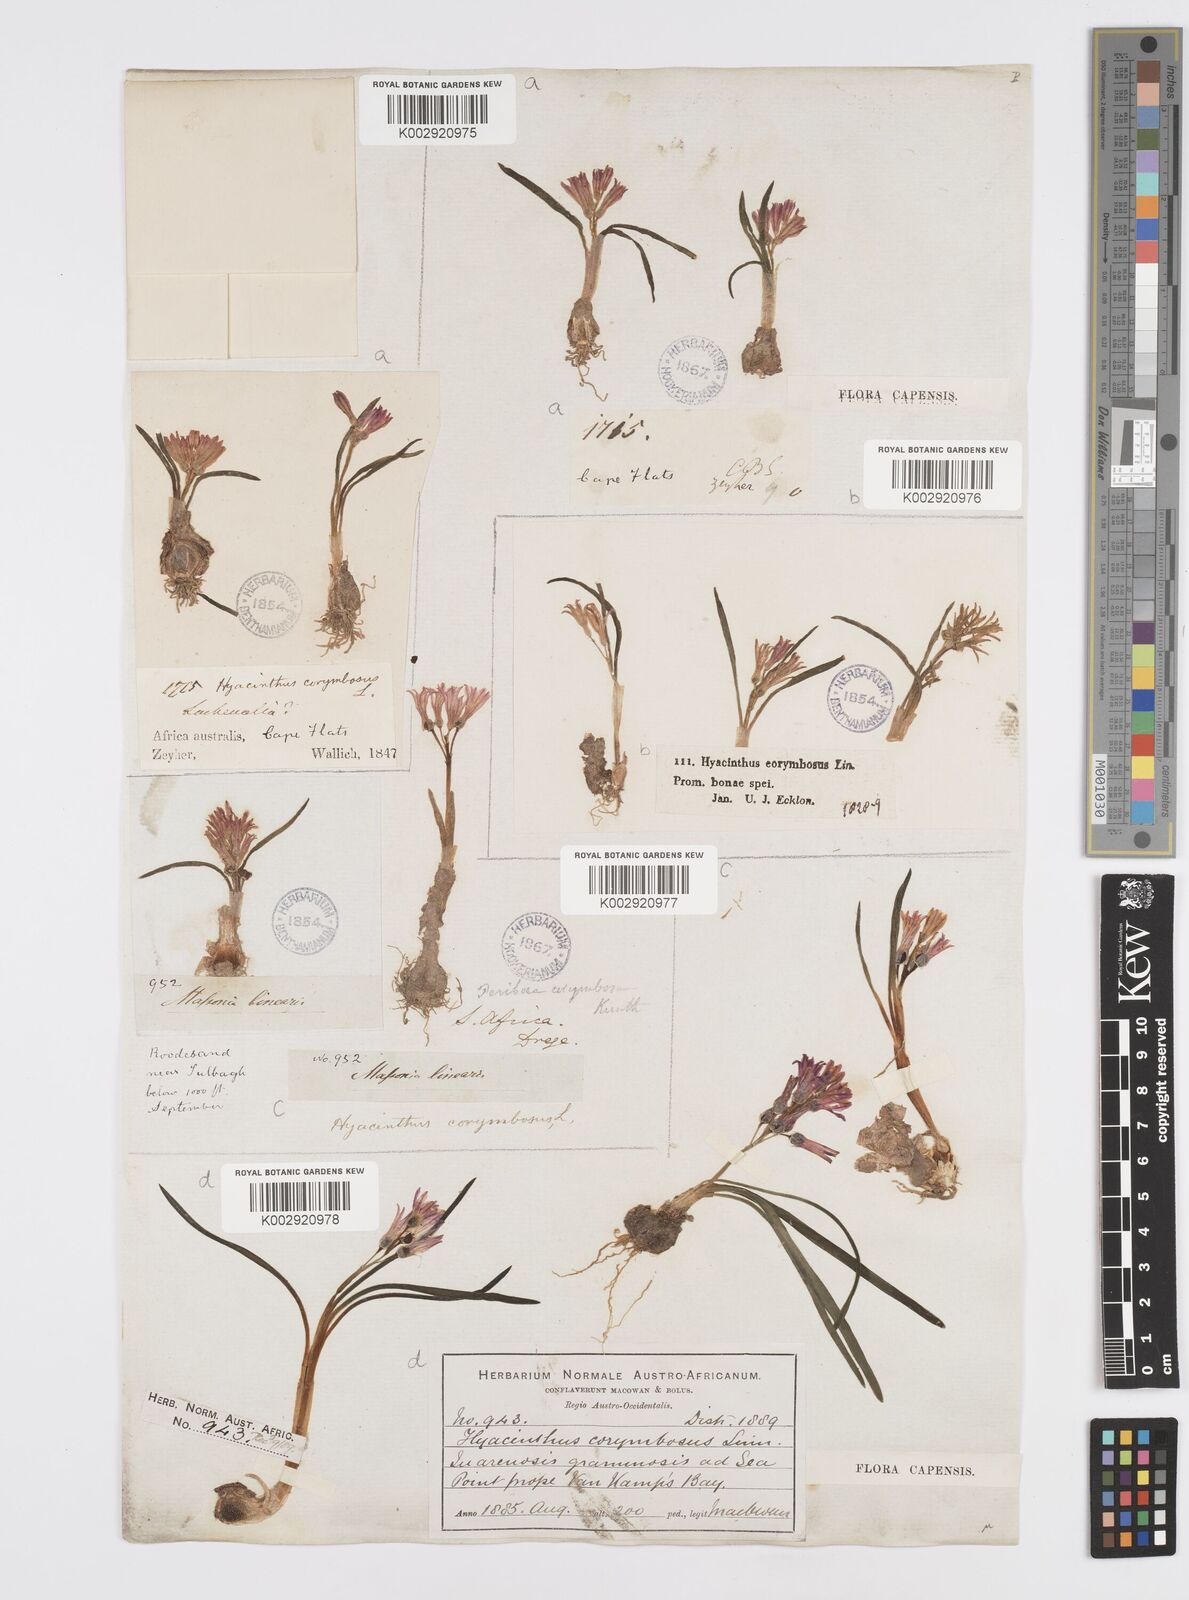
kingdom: Plantae
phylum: Tracheophyta
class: Liliopsida
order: Asparagales
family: Asparagaceae
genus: Lachenalia
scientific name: Lachenalia corymbosa
